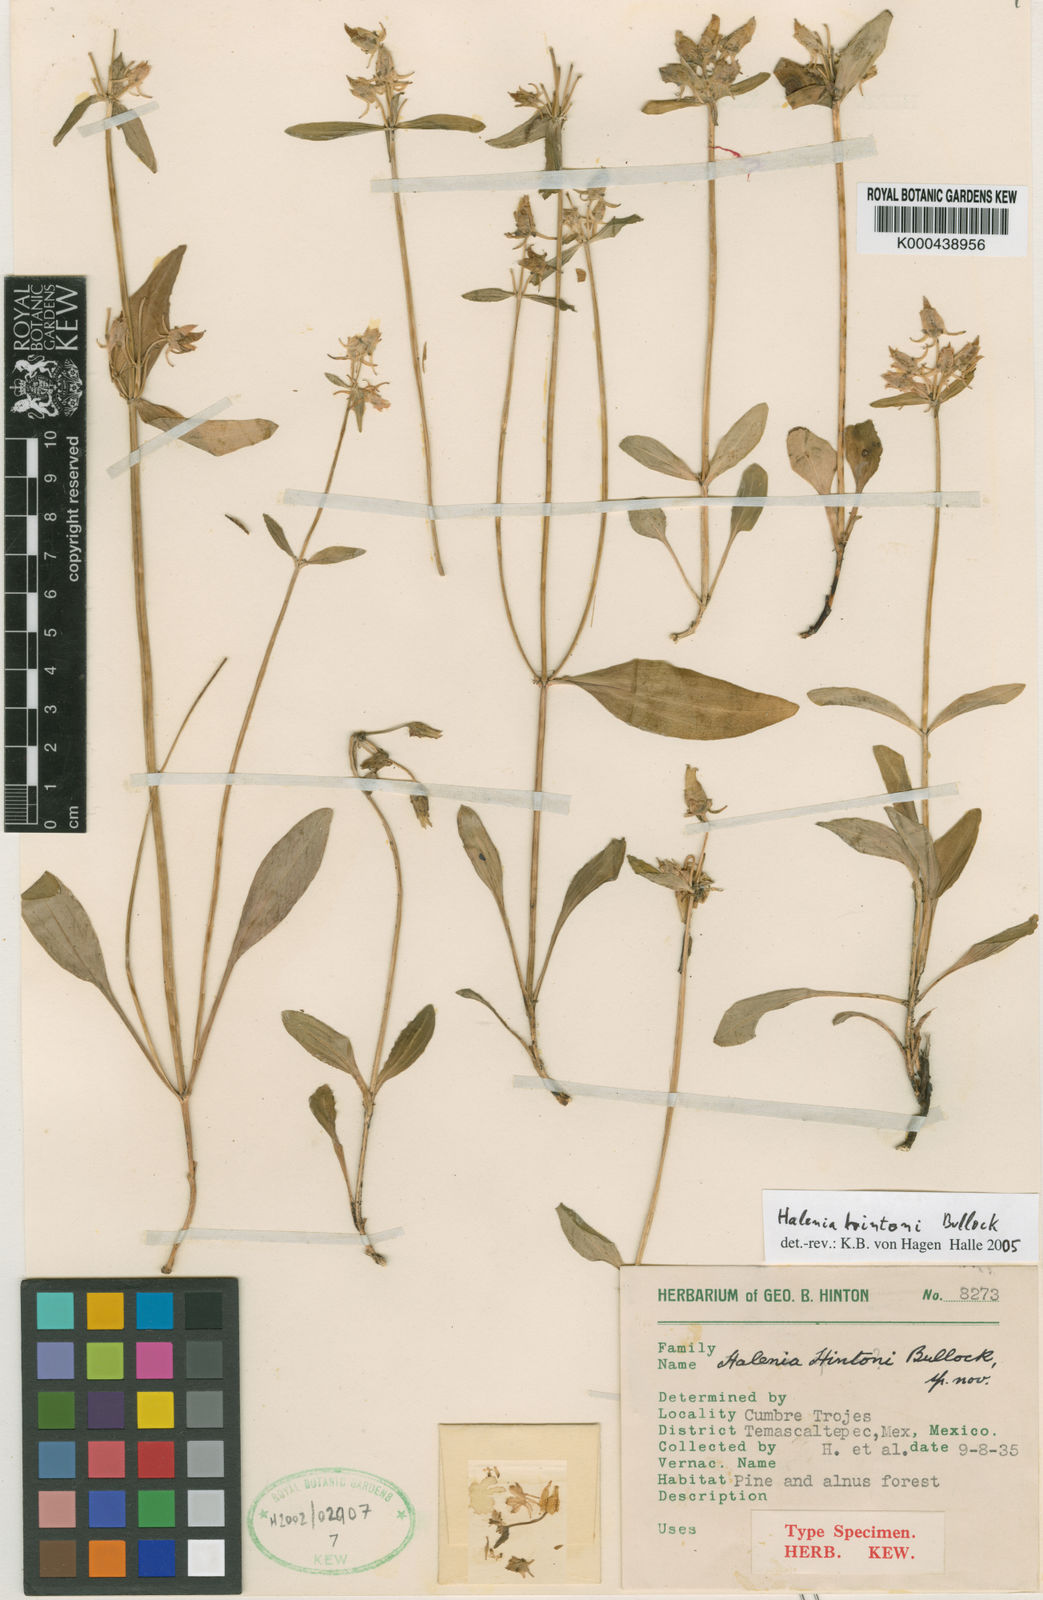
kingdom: Plantae
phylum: Tracheophyta
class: Magnoliopsida
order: Gentianales
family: Gentianaceae
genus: Halenia
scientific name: Halenia hintonii
